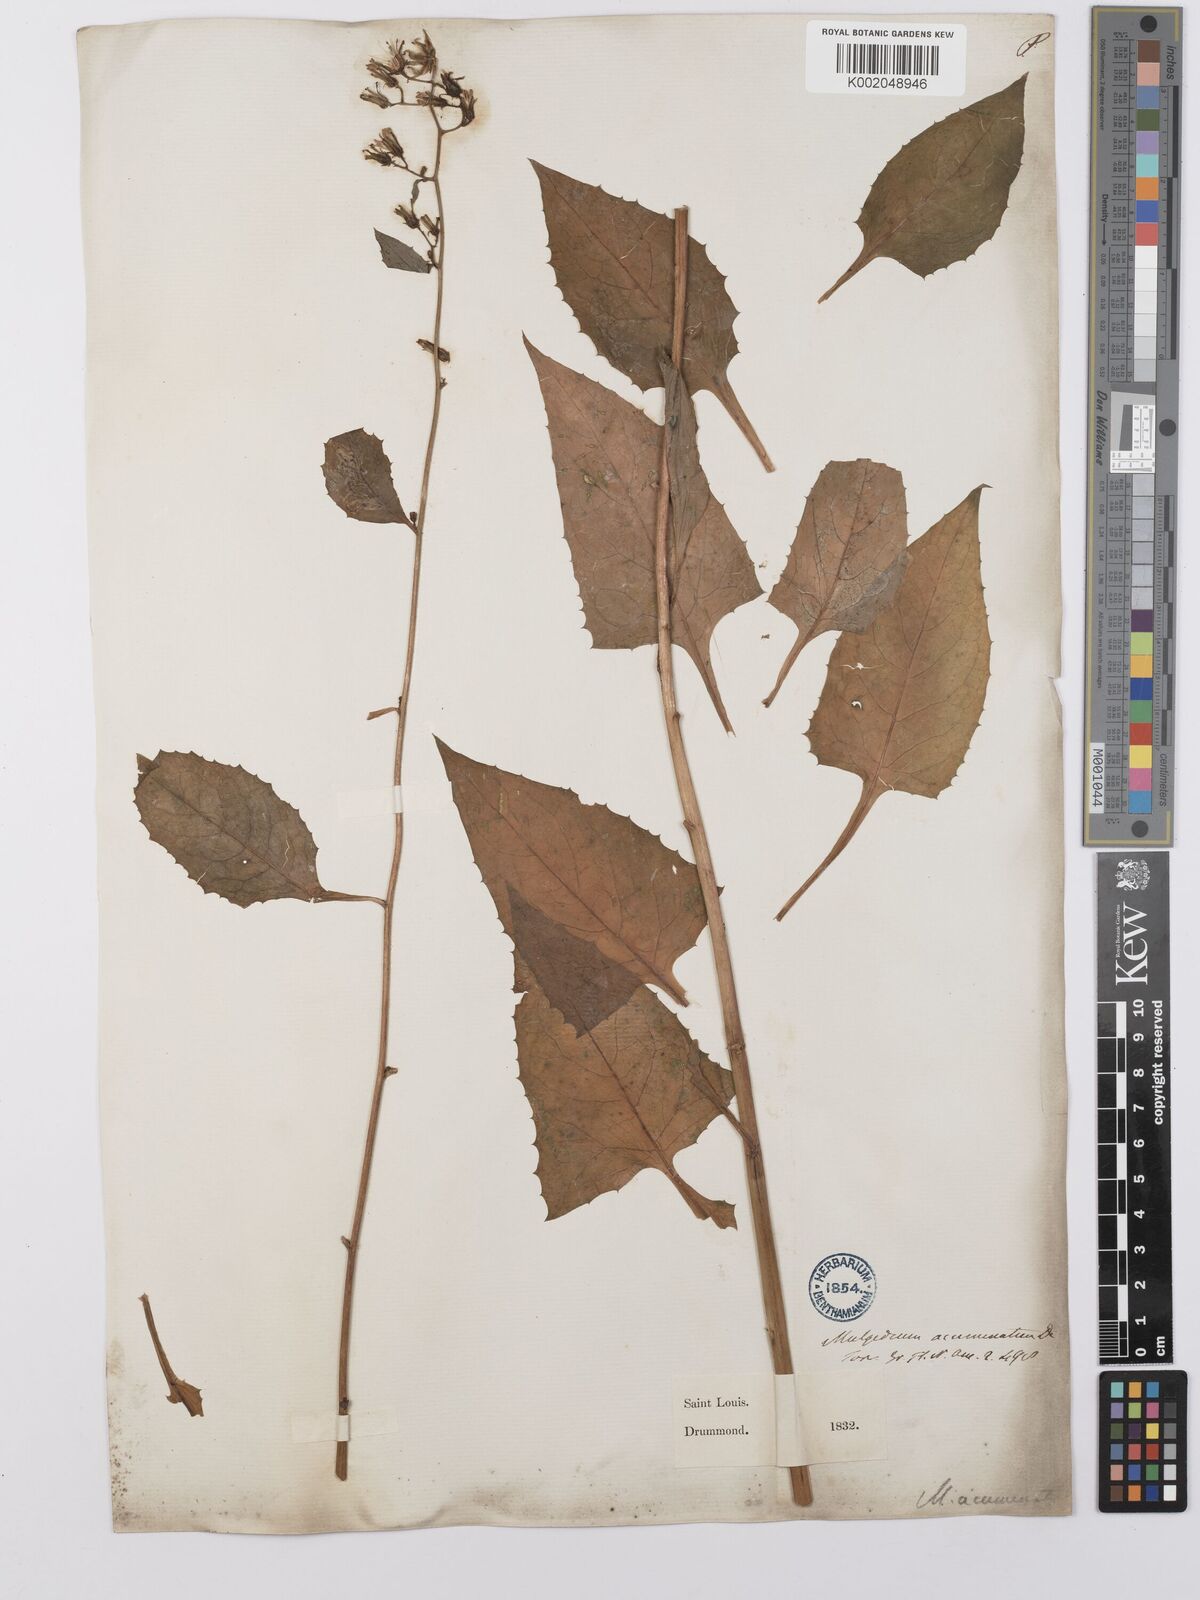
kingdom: Plantae
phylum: Tracheophyta
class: Magnoliopsida
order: Asterales
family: Asteraceae
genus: Lactuca
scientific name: Lactuca floridana
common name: Woodland lettuce
